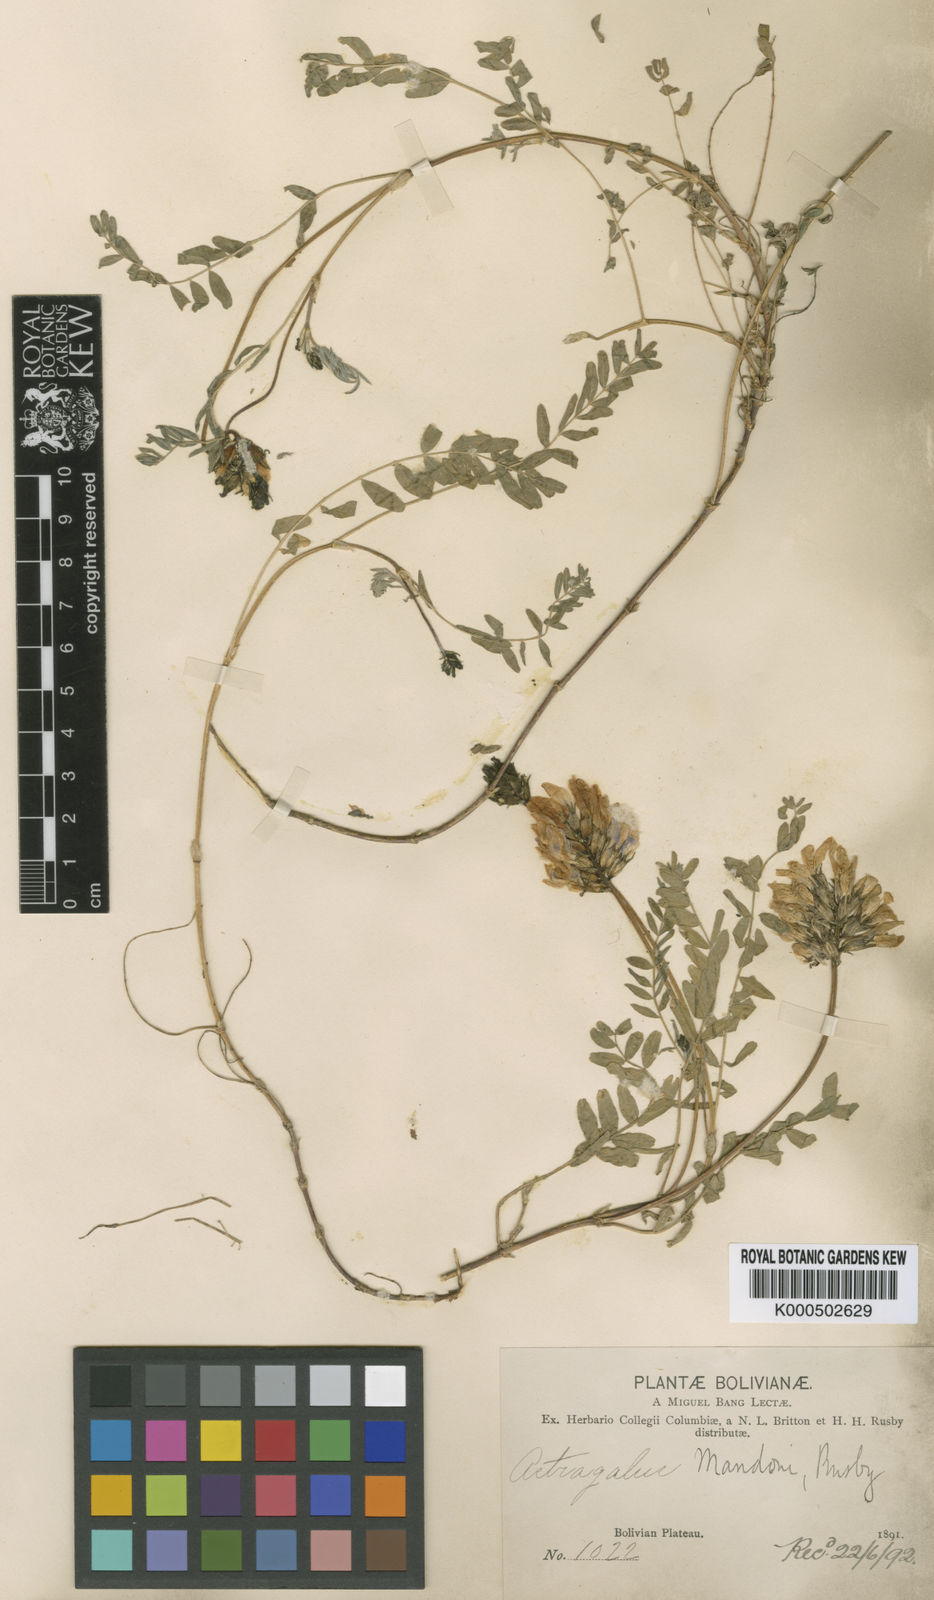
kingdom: Plantae
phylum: Tracheophyta
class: Magnoliopsida
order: Fabales
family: Fabaceae
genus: Astragalus
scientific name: Astragalus garbancillo
